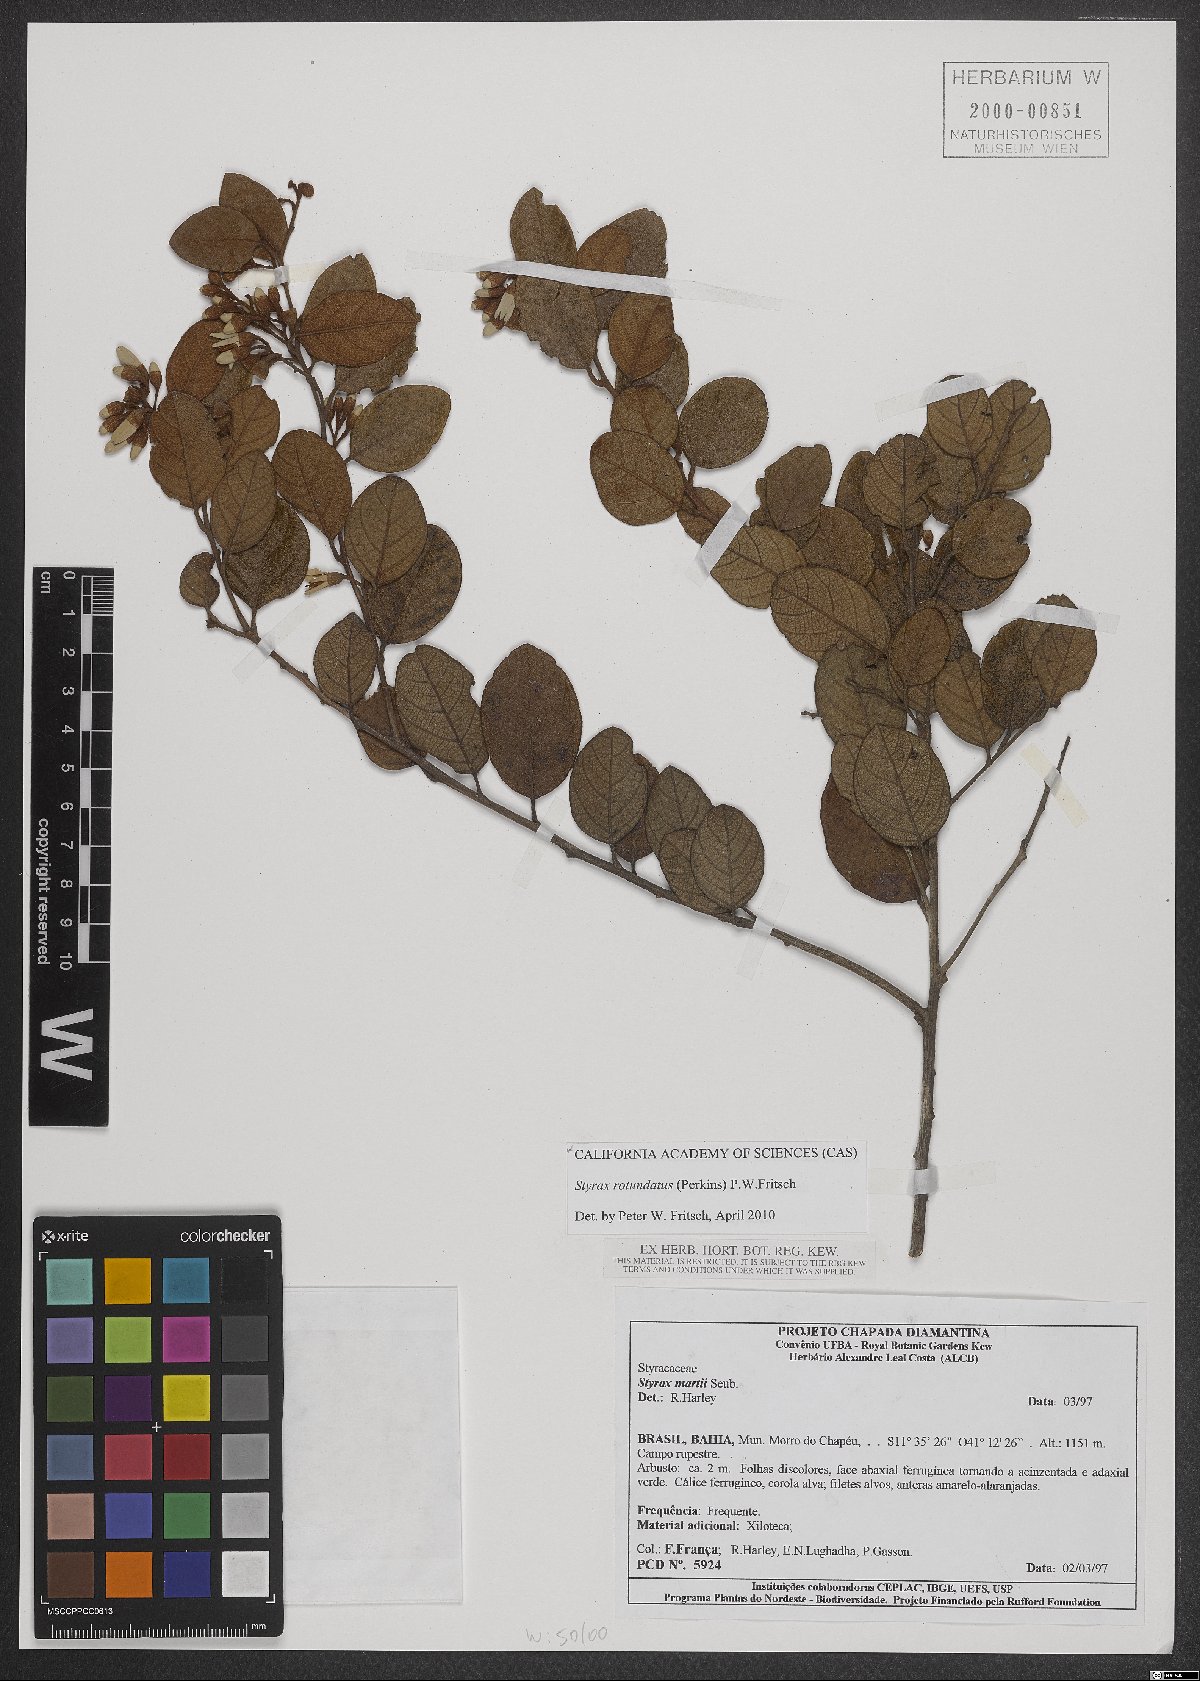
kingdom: Plantae
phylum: Tracheophyta
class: Magnoliopsida
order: Ericales
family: Styracaceae
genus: Styrax
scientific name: Styrax rotundatus
